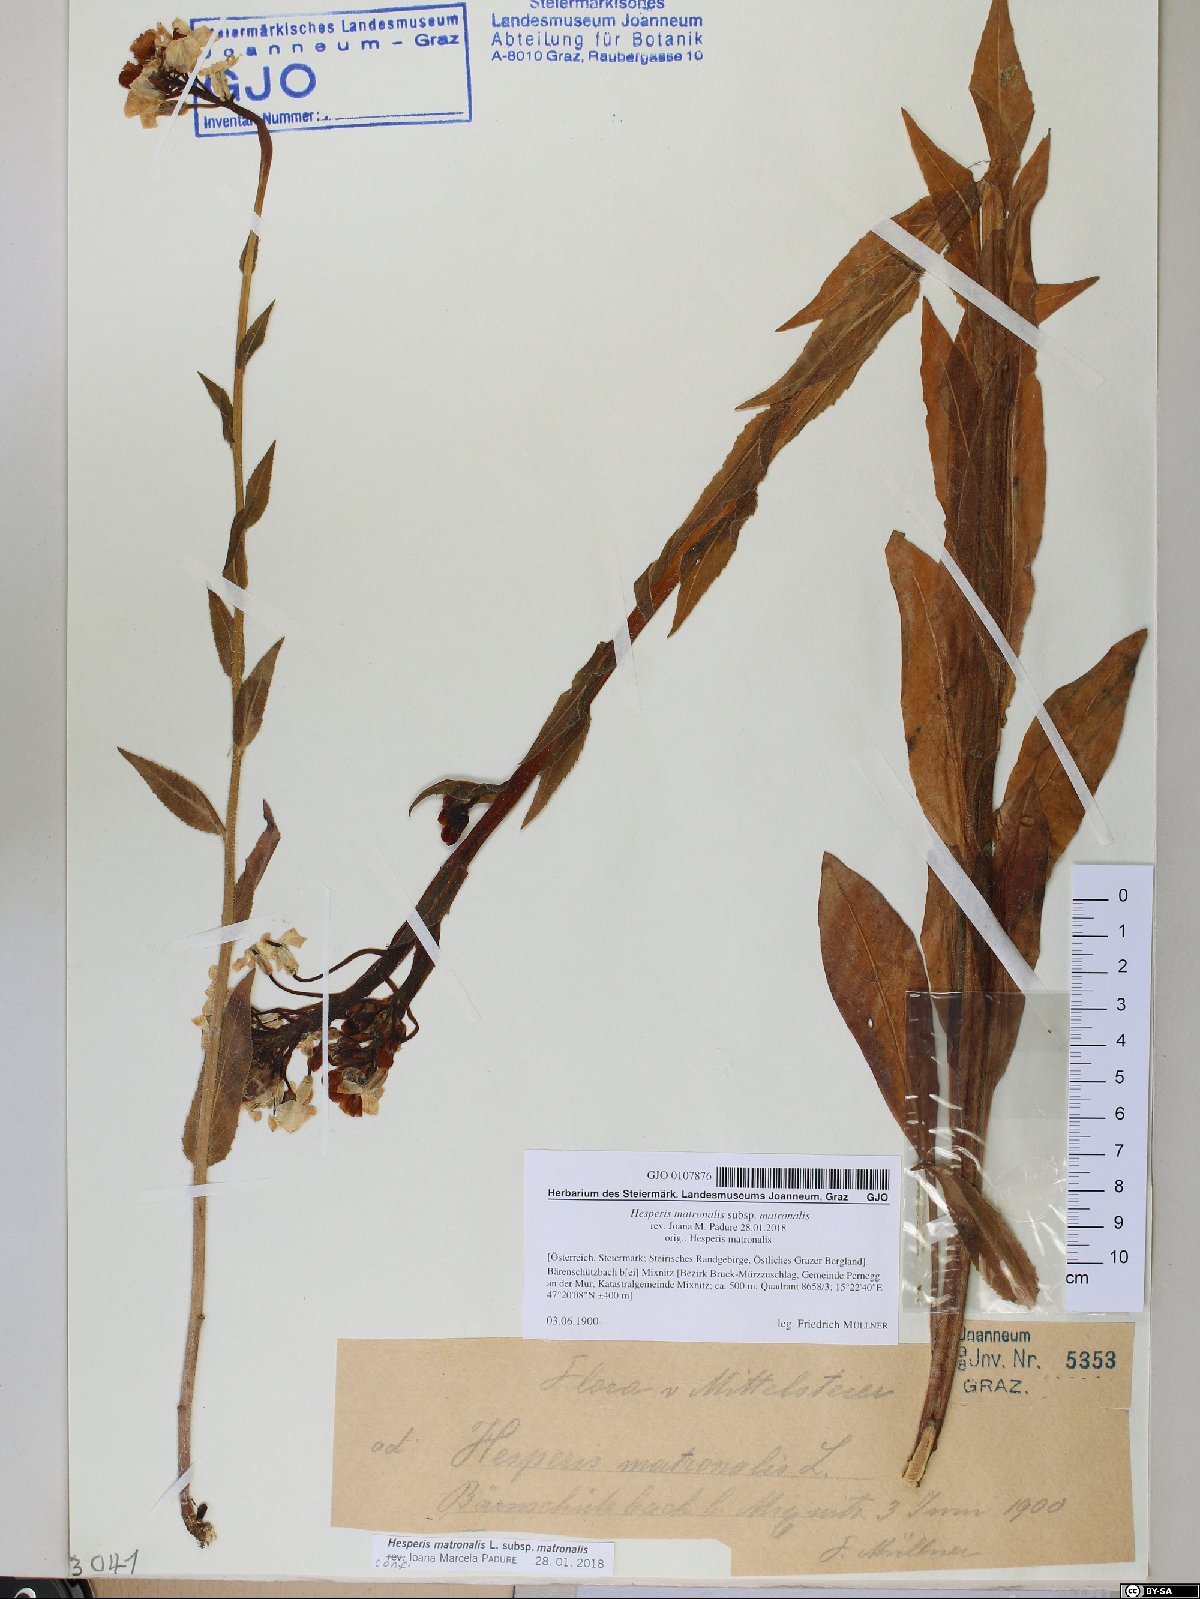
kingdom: Plantae
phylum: Tracheophyta
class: Magnoliopsida
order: Brassicales
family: Brassicaceae
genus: Hesperis
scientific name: Hesperis matronalis
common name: Dame's-violet
